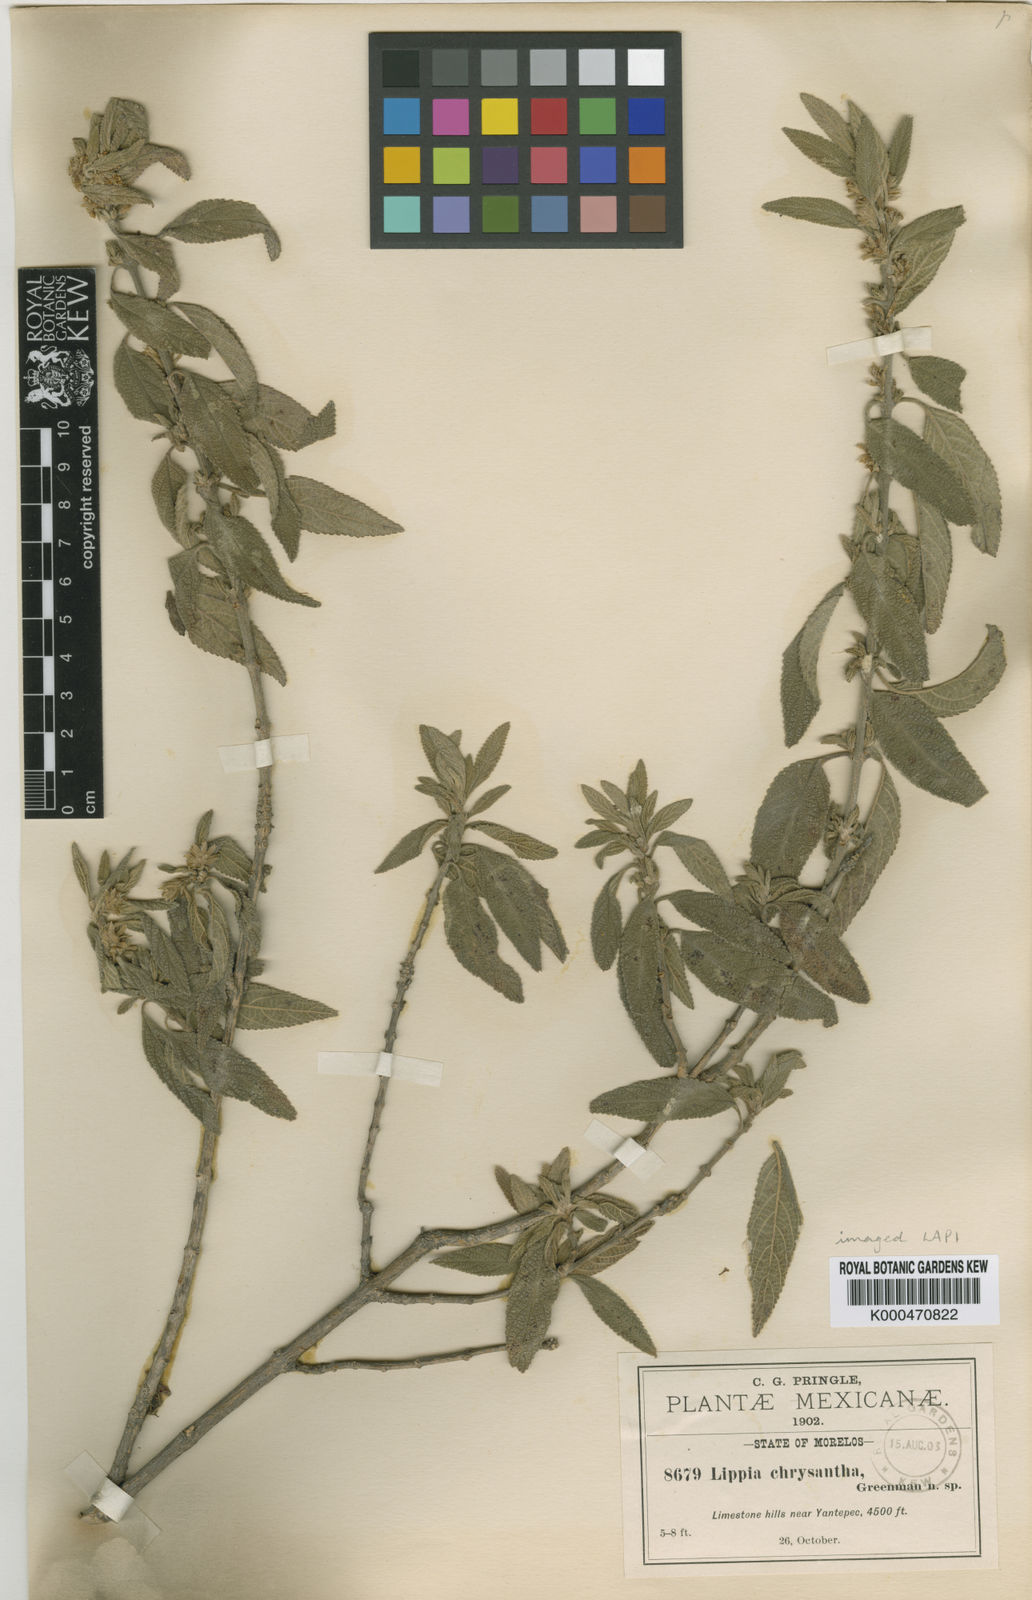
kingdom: Plantae
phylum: Tracheophyta
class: Magnoliopsida
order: Lamiales
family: Verbenaceae
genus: Lippia
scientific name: Lippia chrysantha
